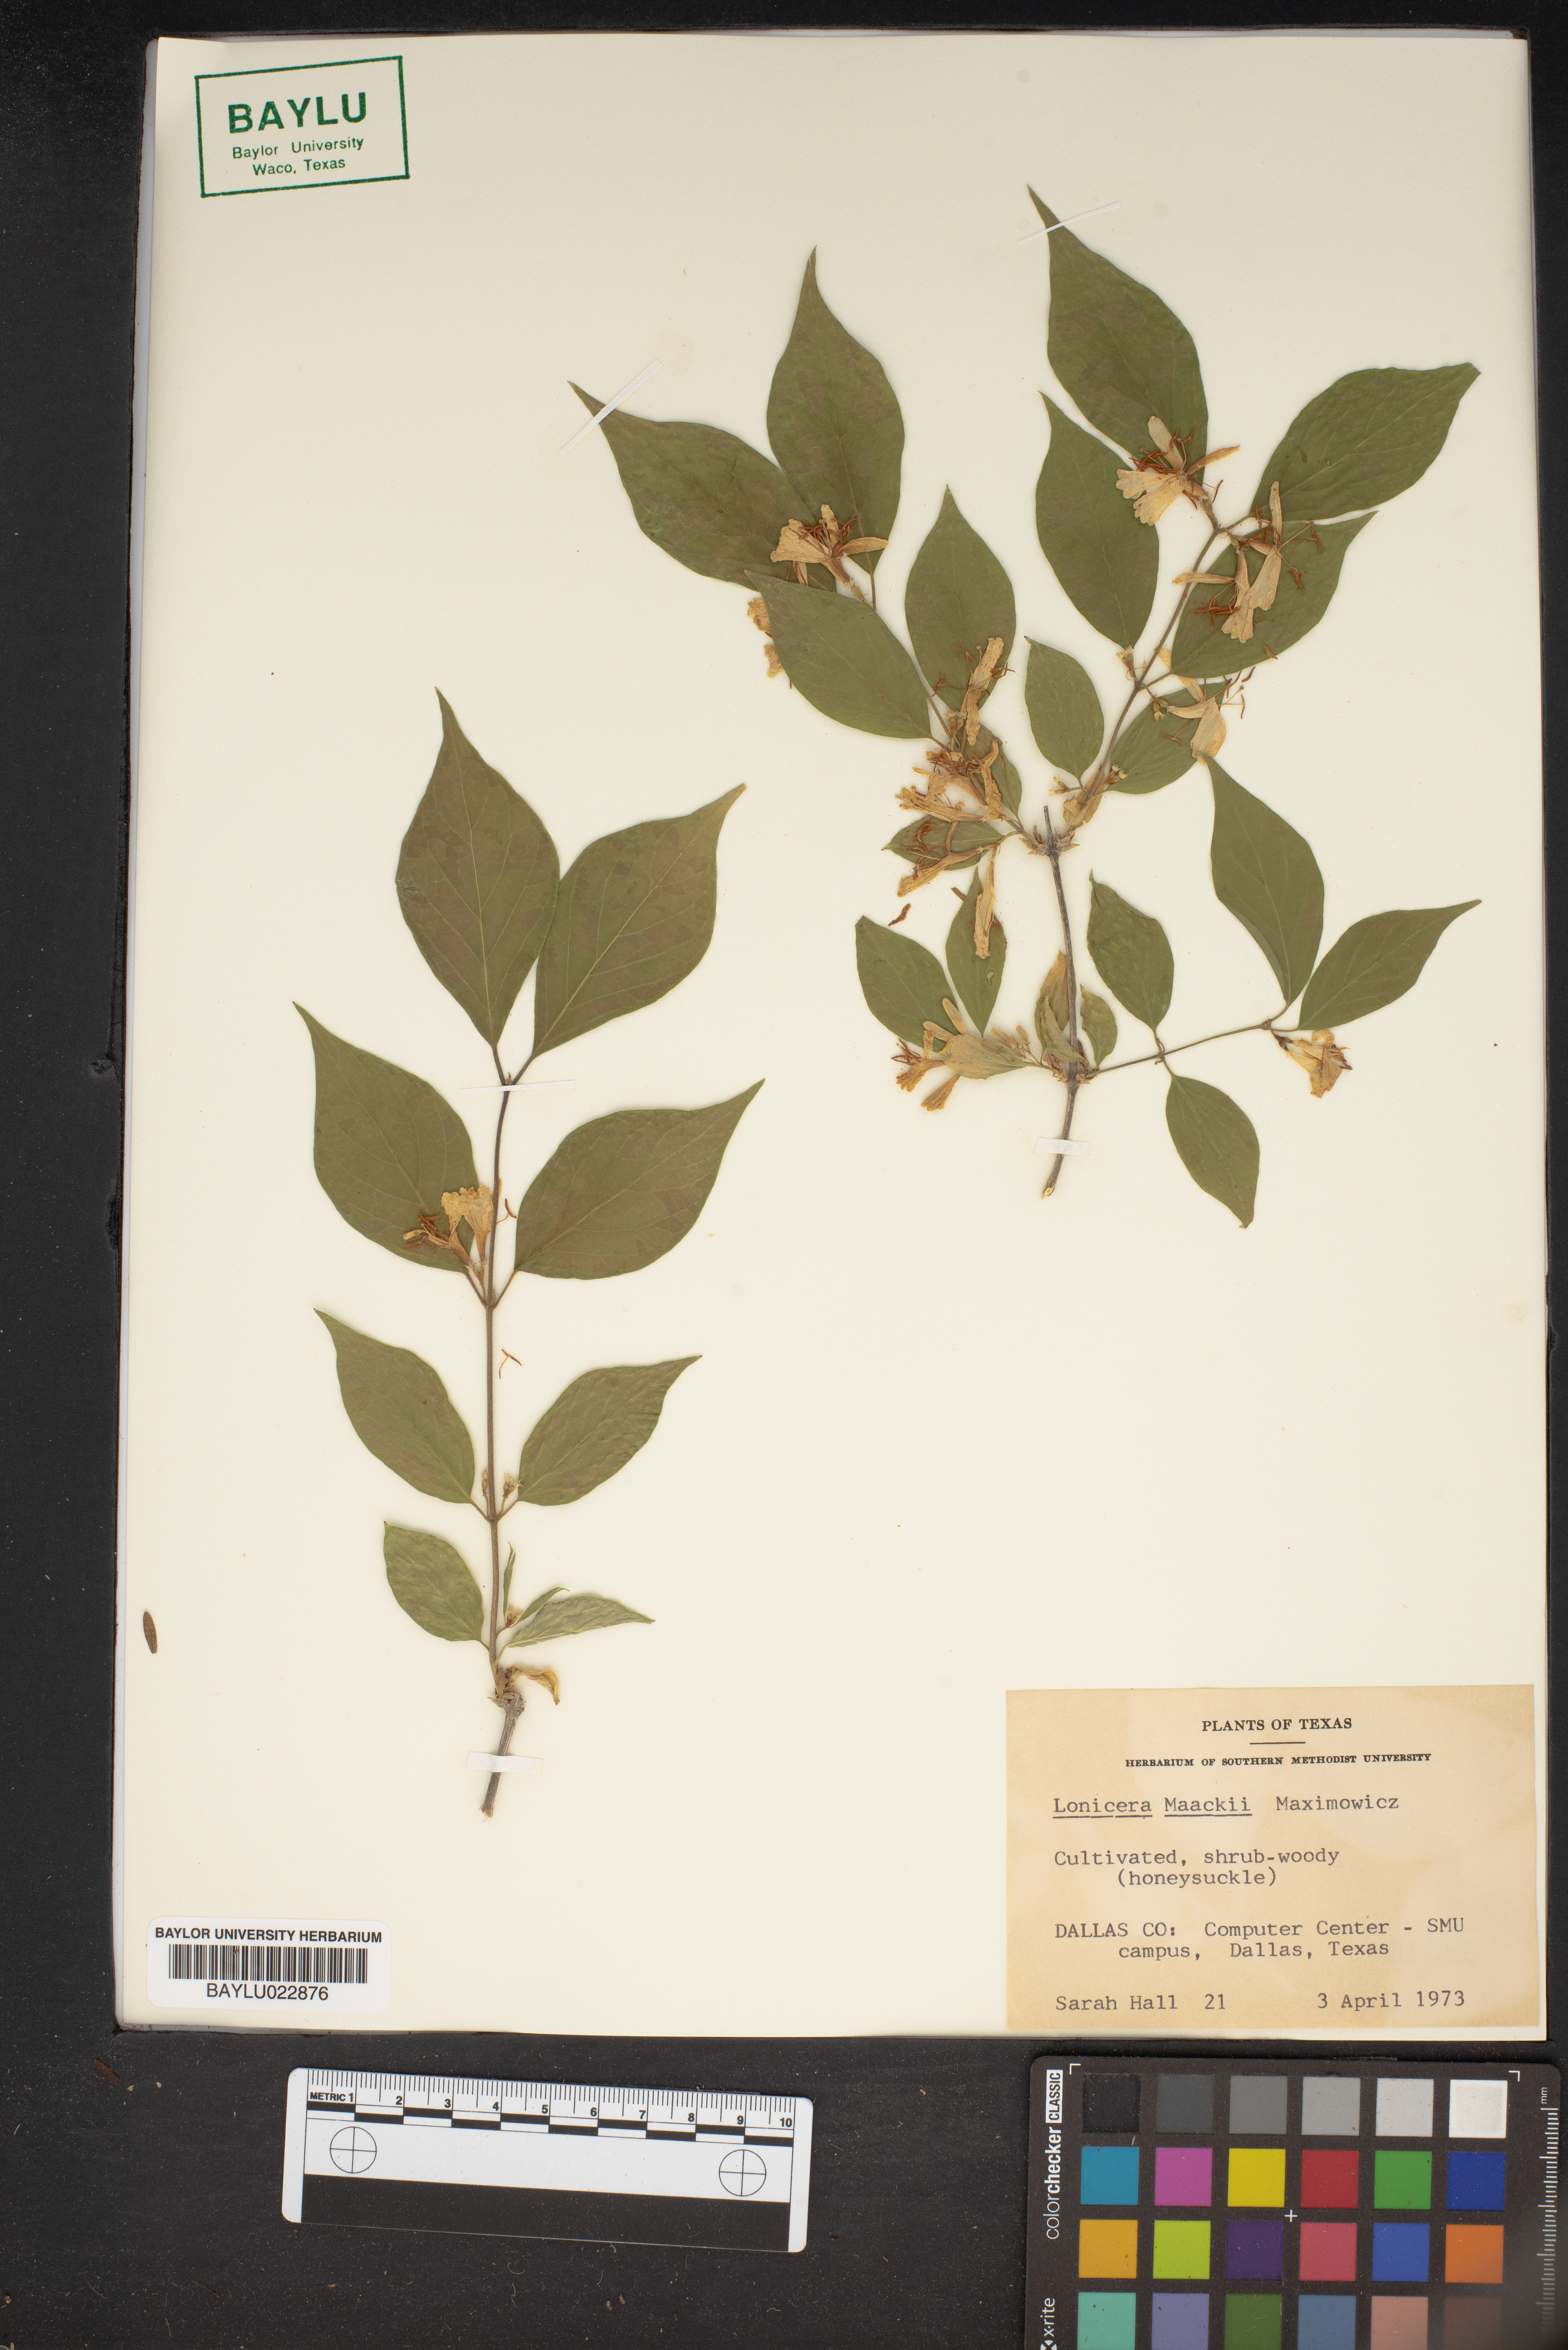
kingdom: Plantae
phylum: Tracheophyta
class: Magnoliopsida
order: Dipsacales
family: Caprifoliaceae
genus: Lonicera
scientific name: Lonicera maackii
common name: Amur honeysuckle
